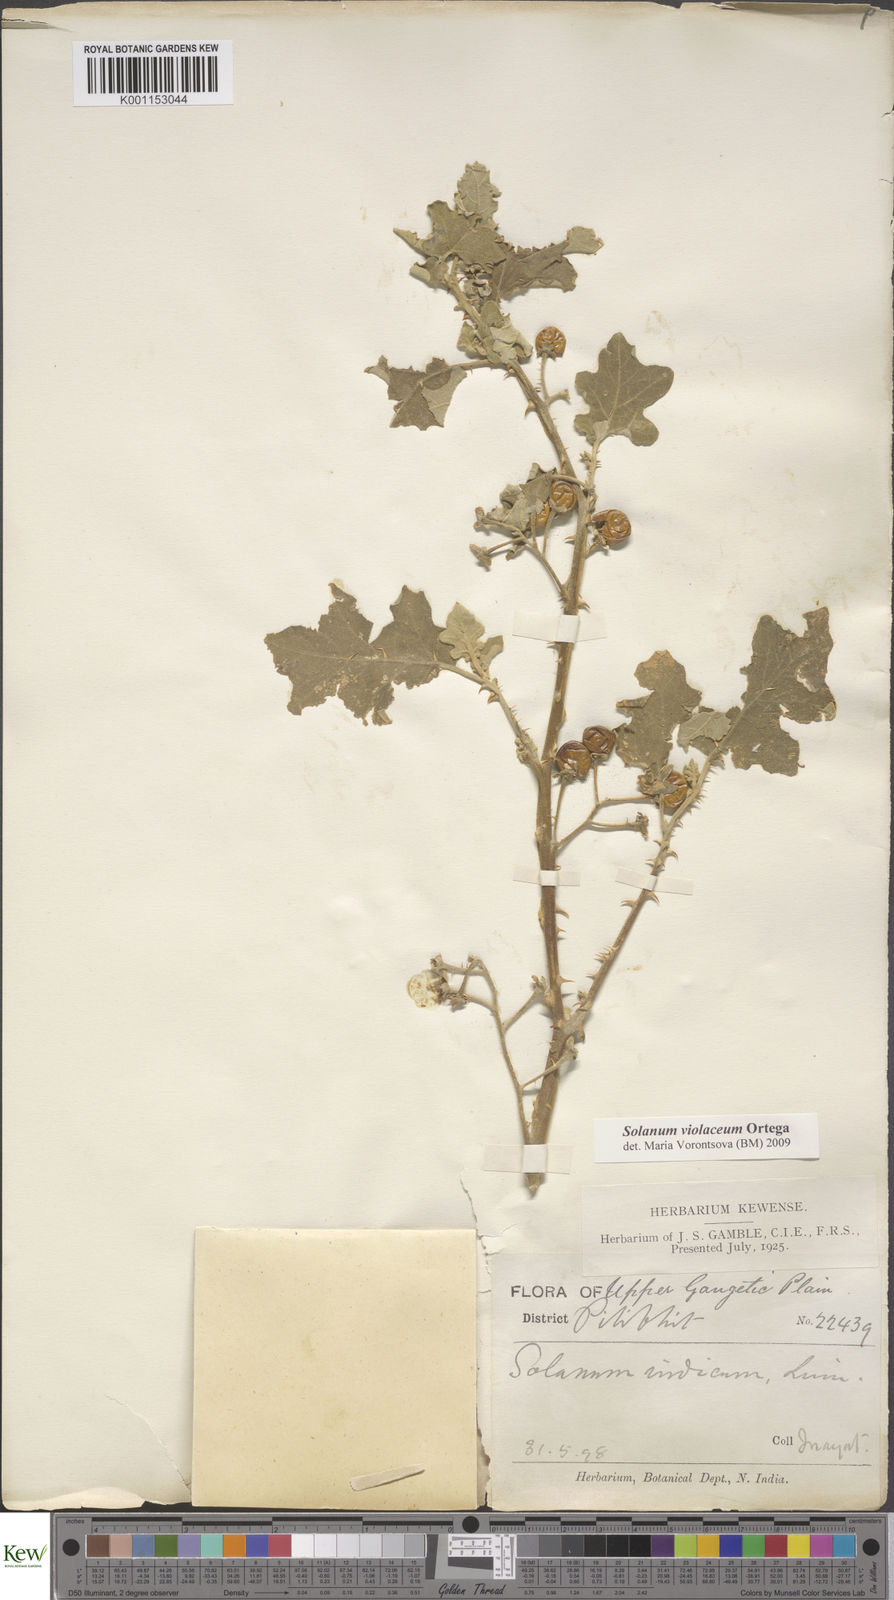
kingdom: Plantae
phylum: Tracheophyta
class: Magnoliopsida
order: Solanales
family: Solanaceae
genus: Solanum
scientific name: Solanum violaceum
